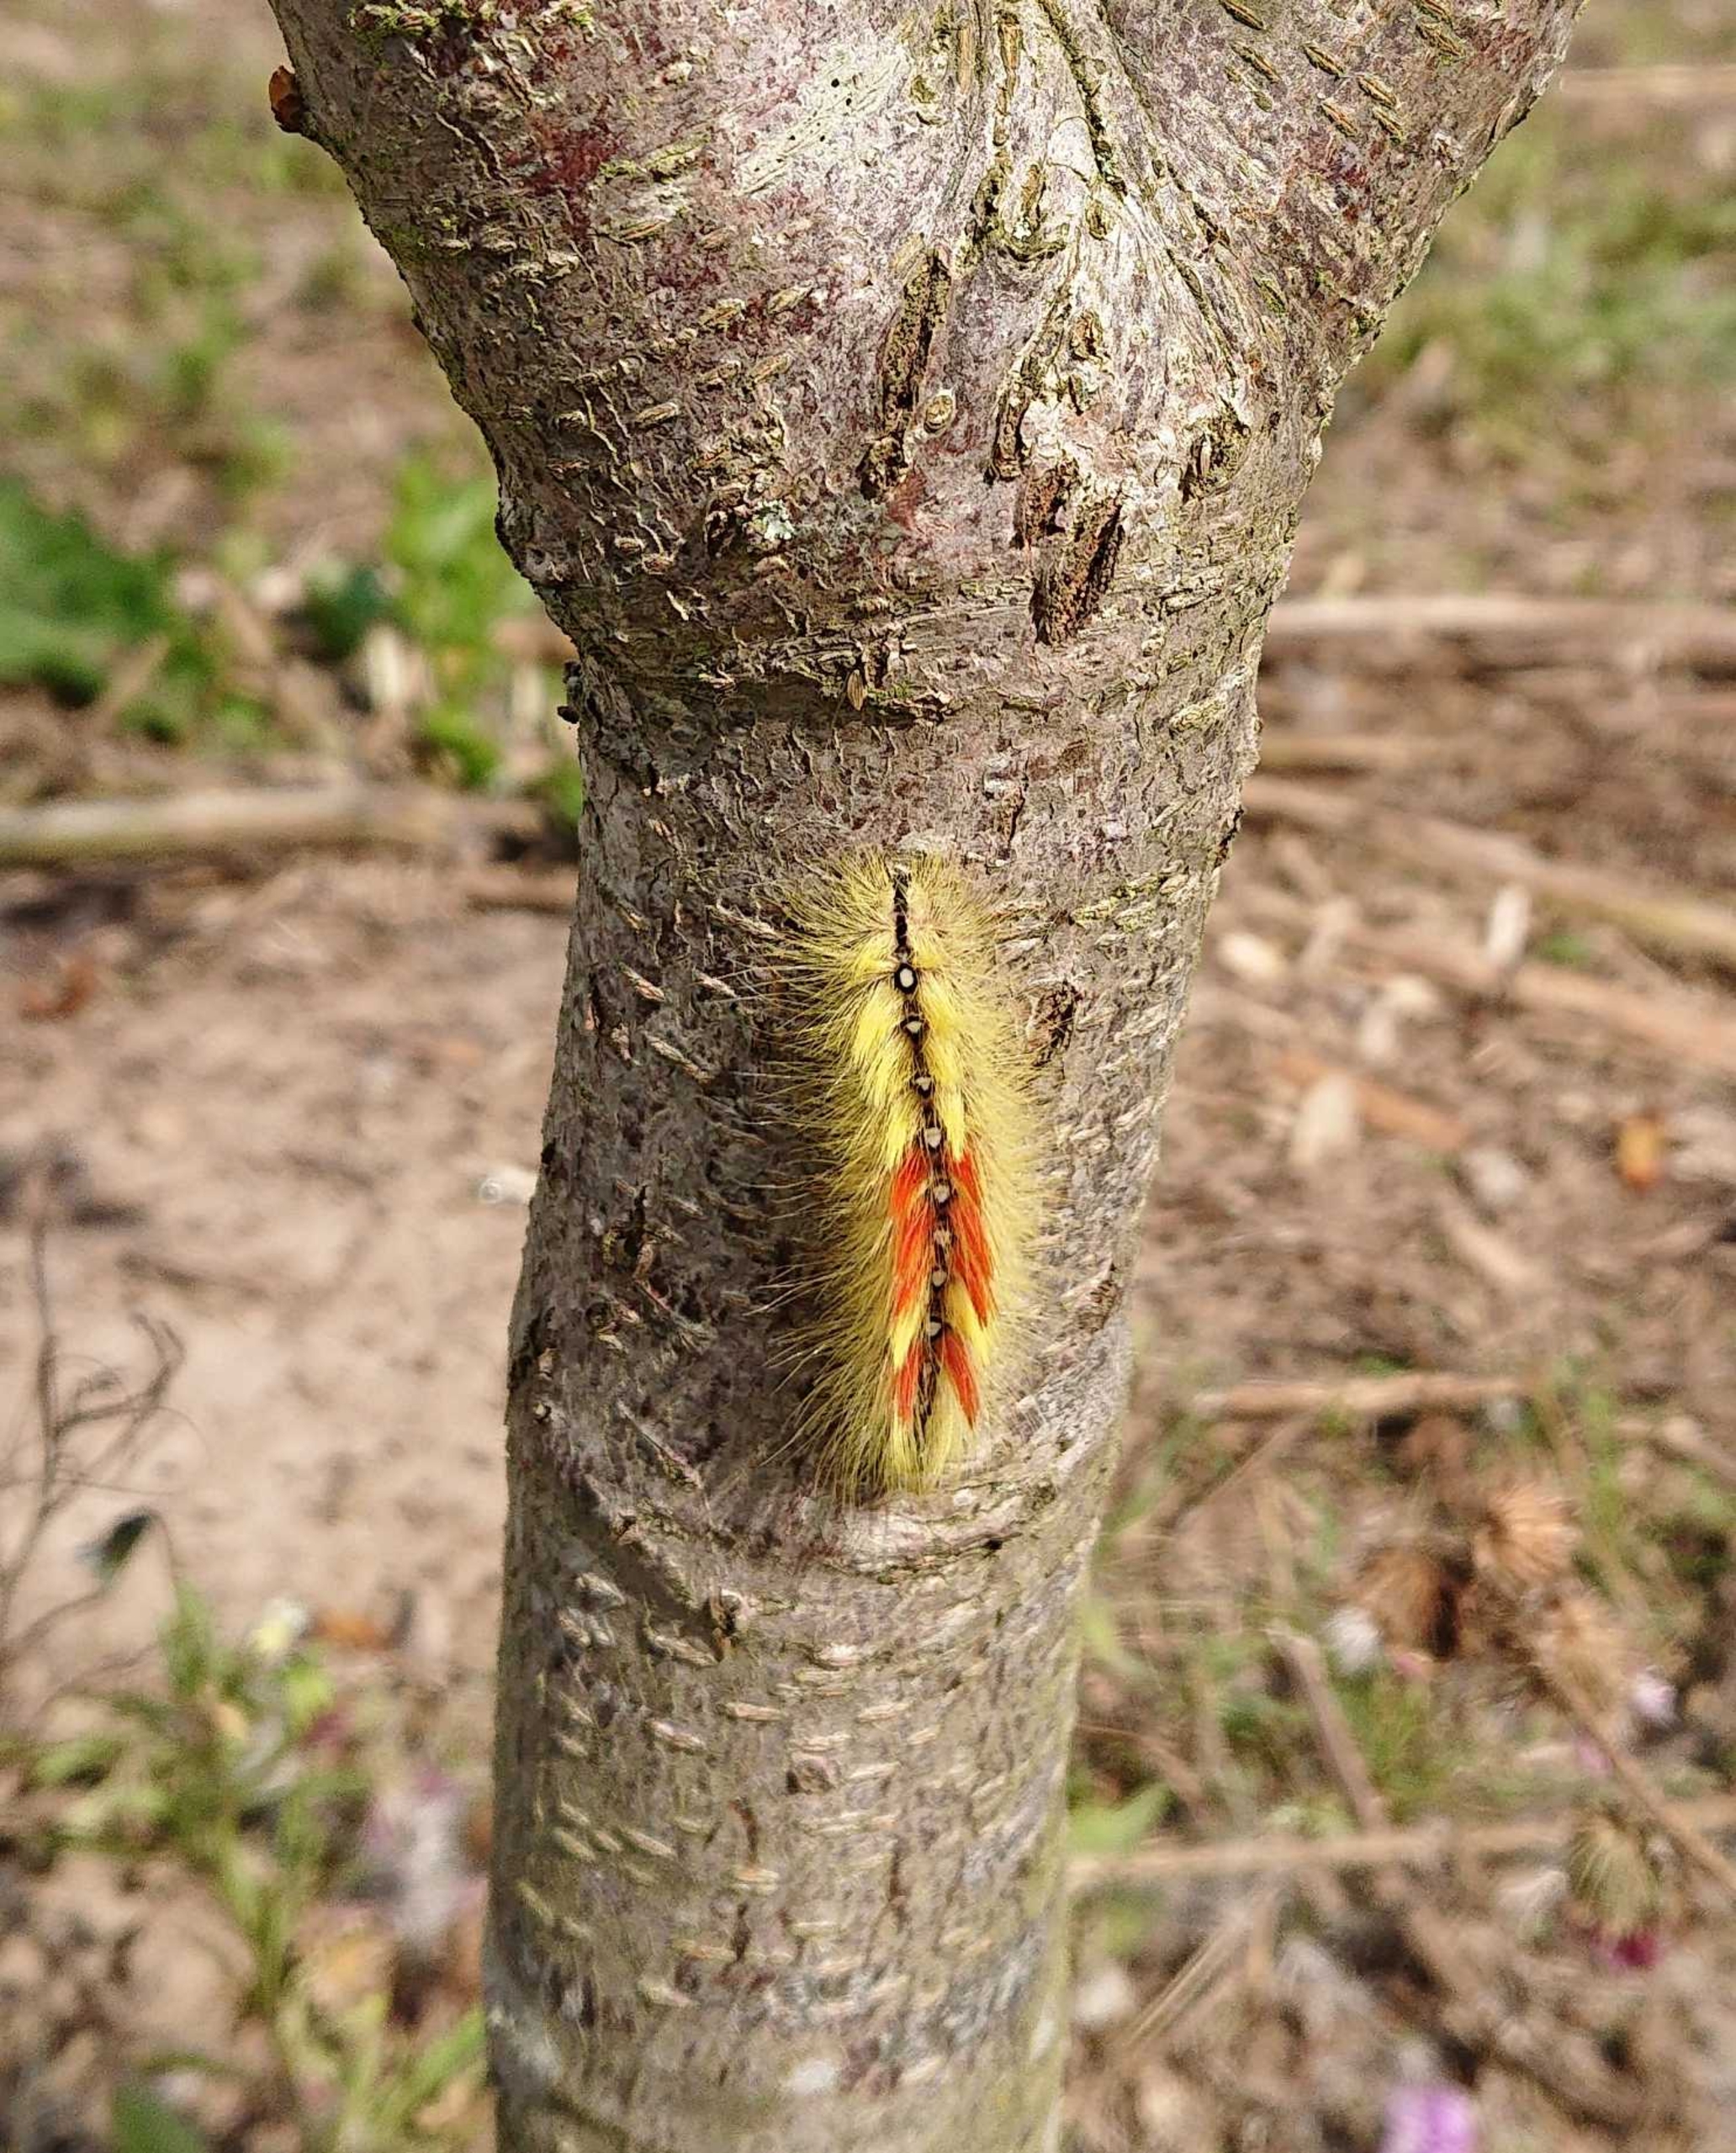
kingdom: Animalia
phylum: Arthropoda
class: Insecta
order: Lepidoptera
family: Noctuidae
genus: Acronicta
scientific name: Acronicta aceris
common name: Ahornugle
